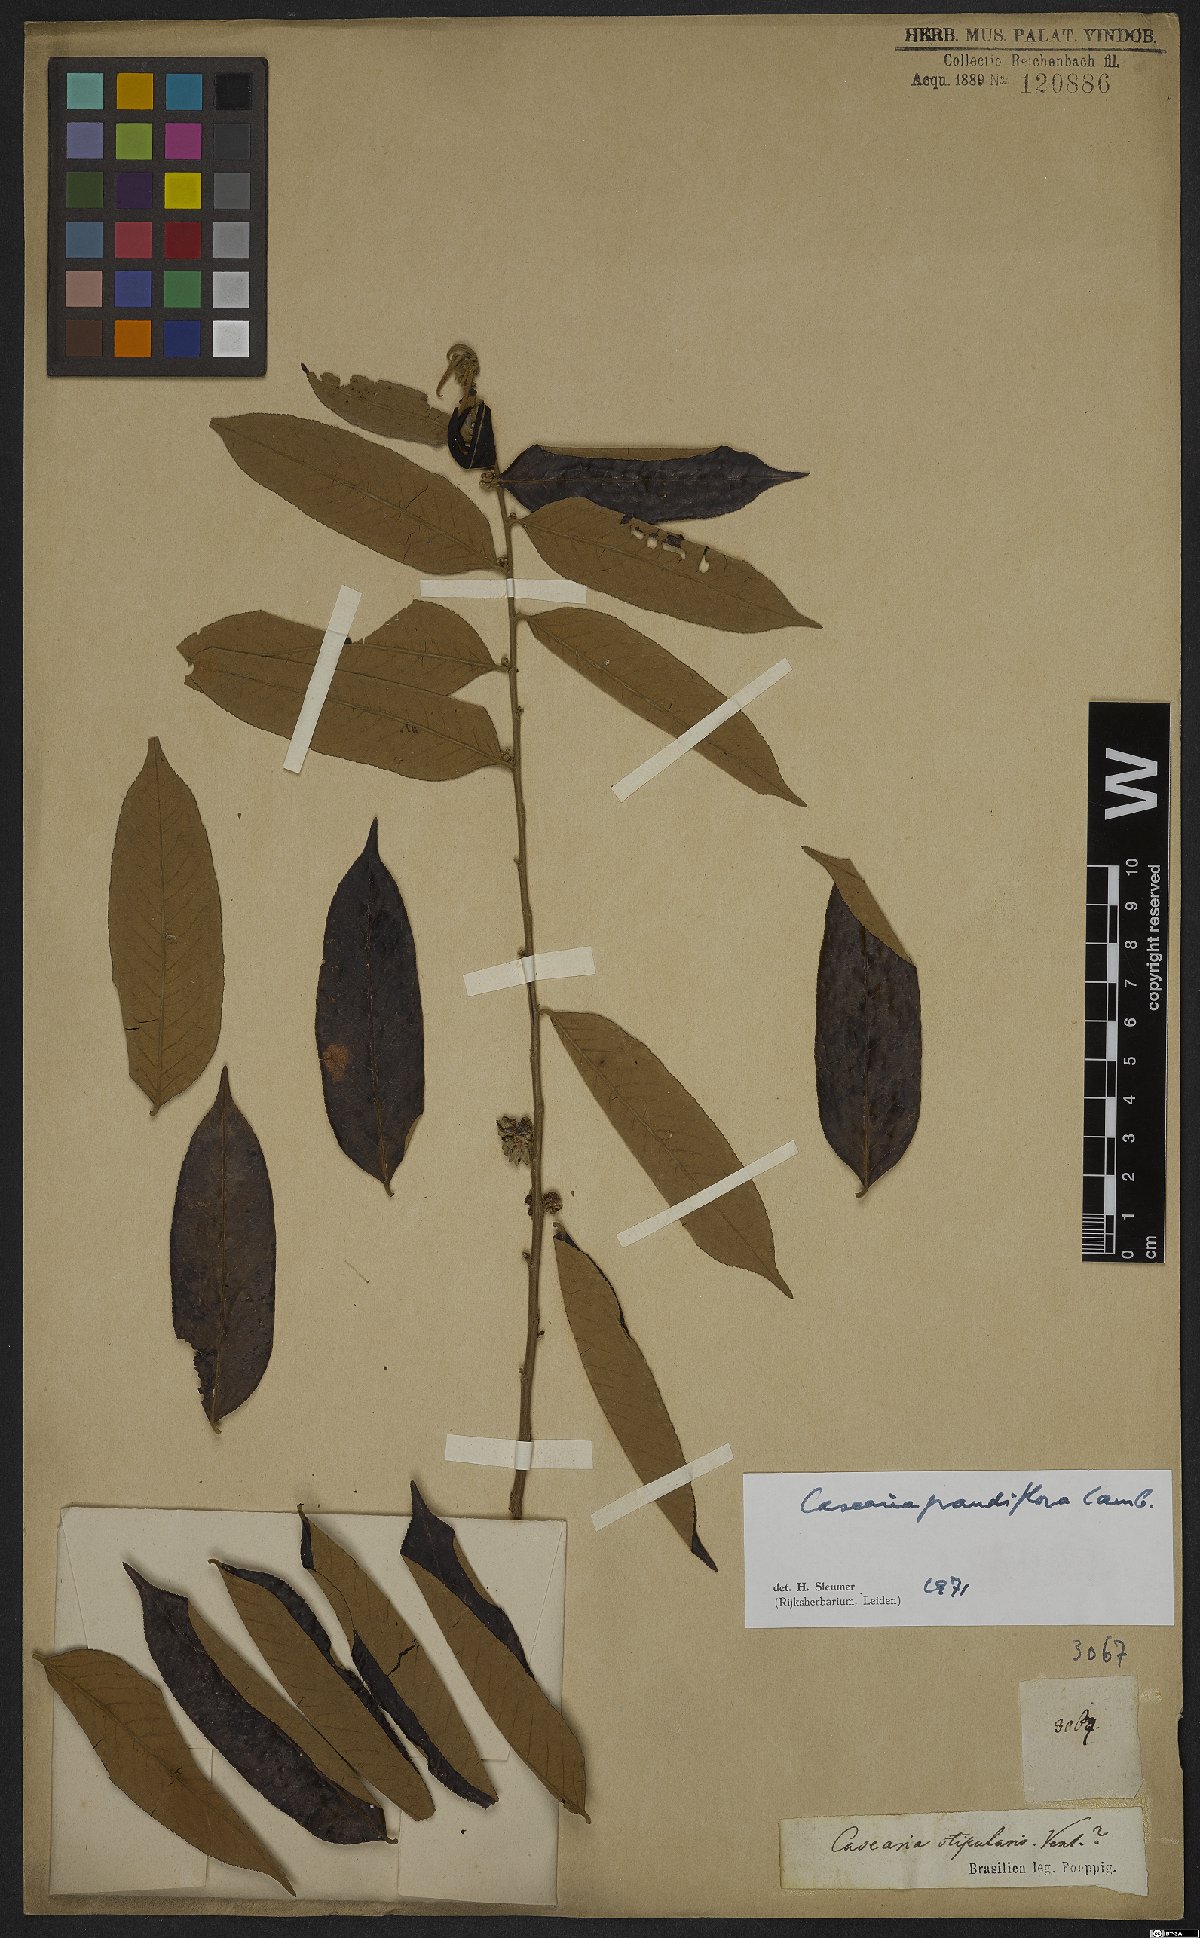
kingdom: Plantae
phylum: Tracheophyta
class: Magnoliopsida
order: Malpighiales
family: Salicaceae
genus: Casearia
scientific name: Casearia grandiflora
